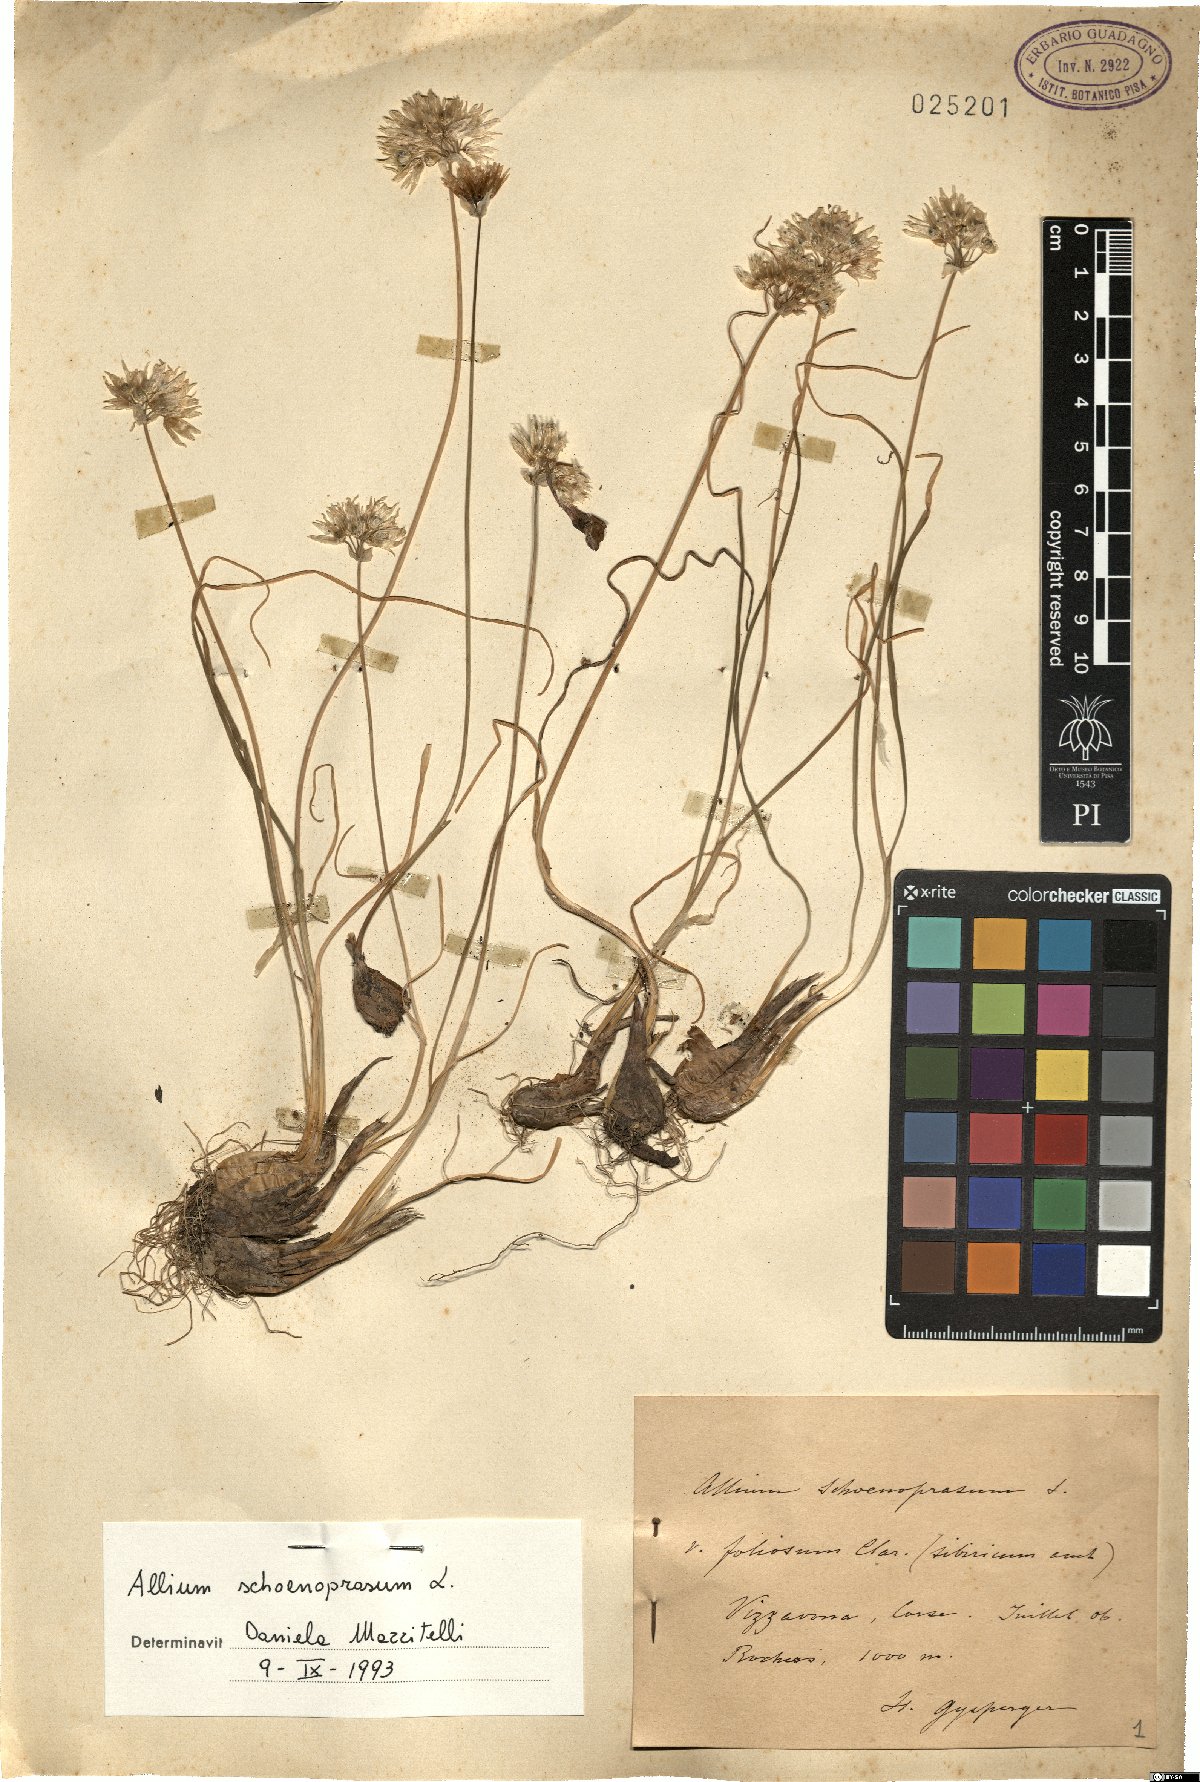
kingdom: Plantae
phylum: Tracheophyta
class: Liliopsida
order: Asparagales
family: Amaryllidaceae
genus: Allium
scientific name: Allium schoenoprasum
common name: Chives
